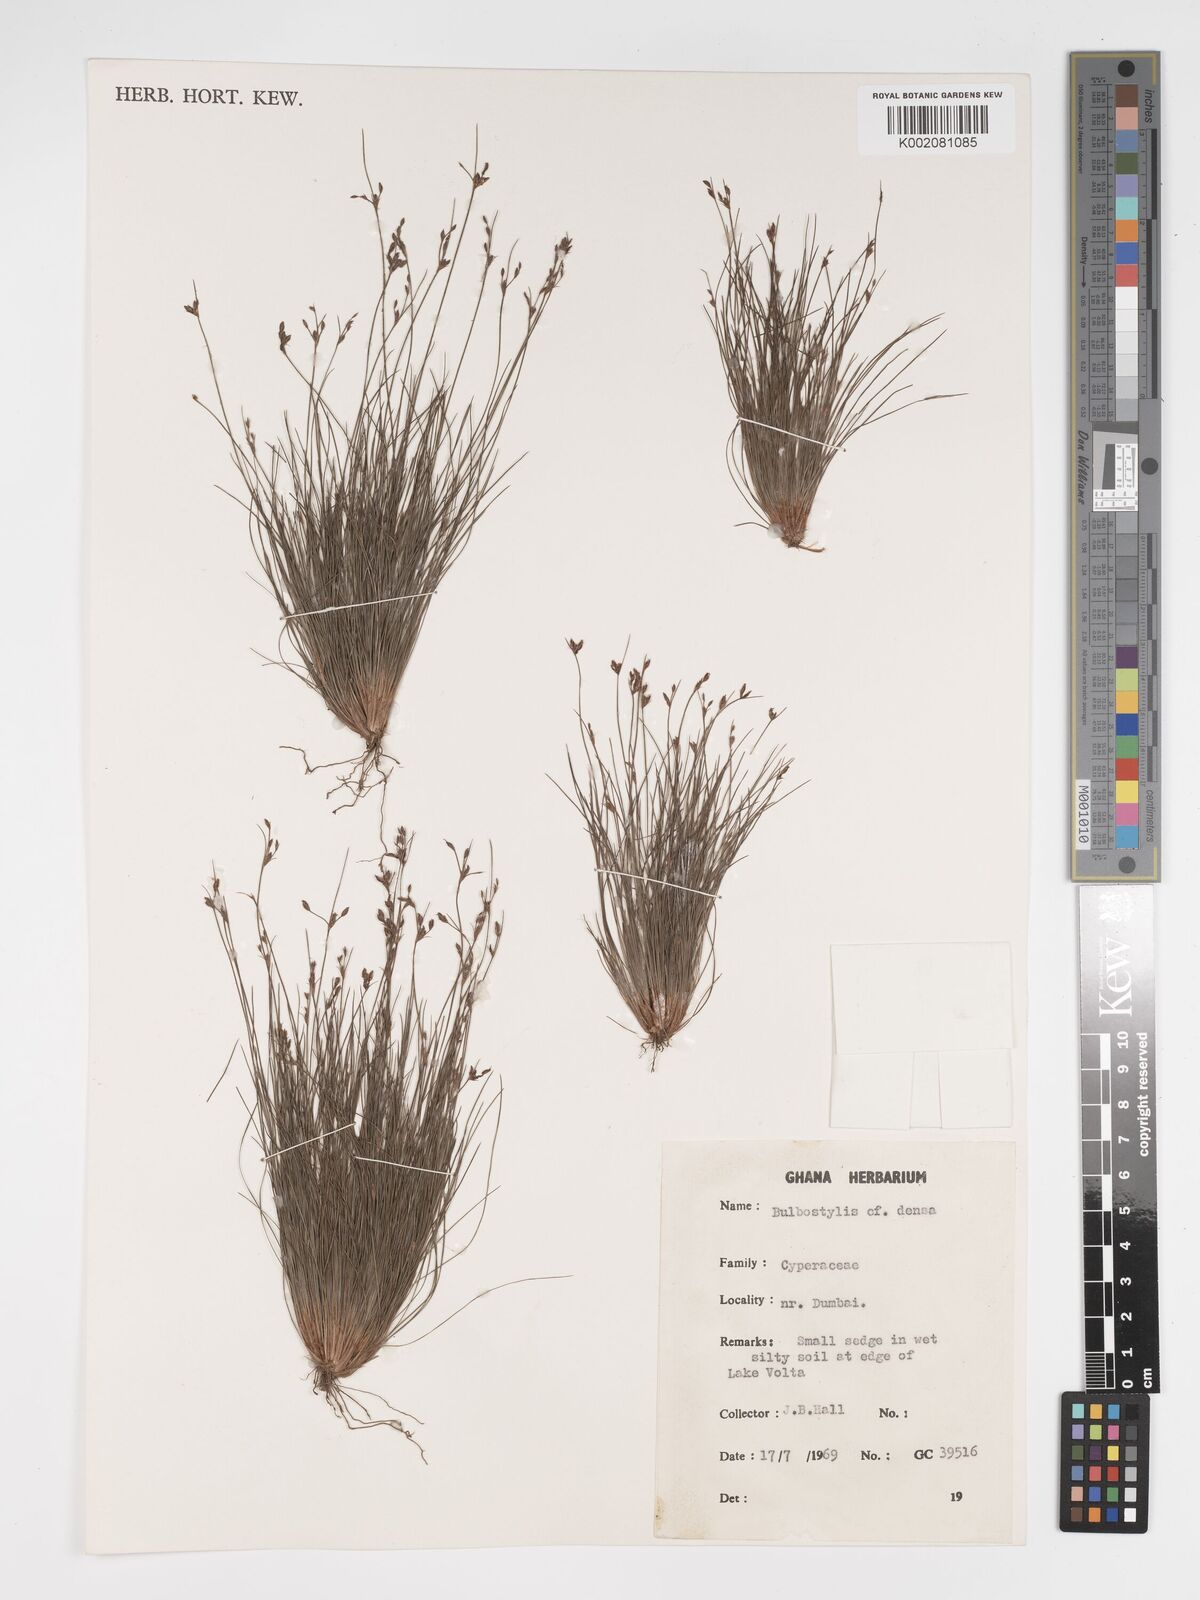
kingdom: Plantae
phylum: Tracheophyta
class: Liliopsida
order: Poales
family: Cyperaceae
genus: Bulbostylis
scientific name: Bulbostylis densa
